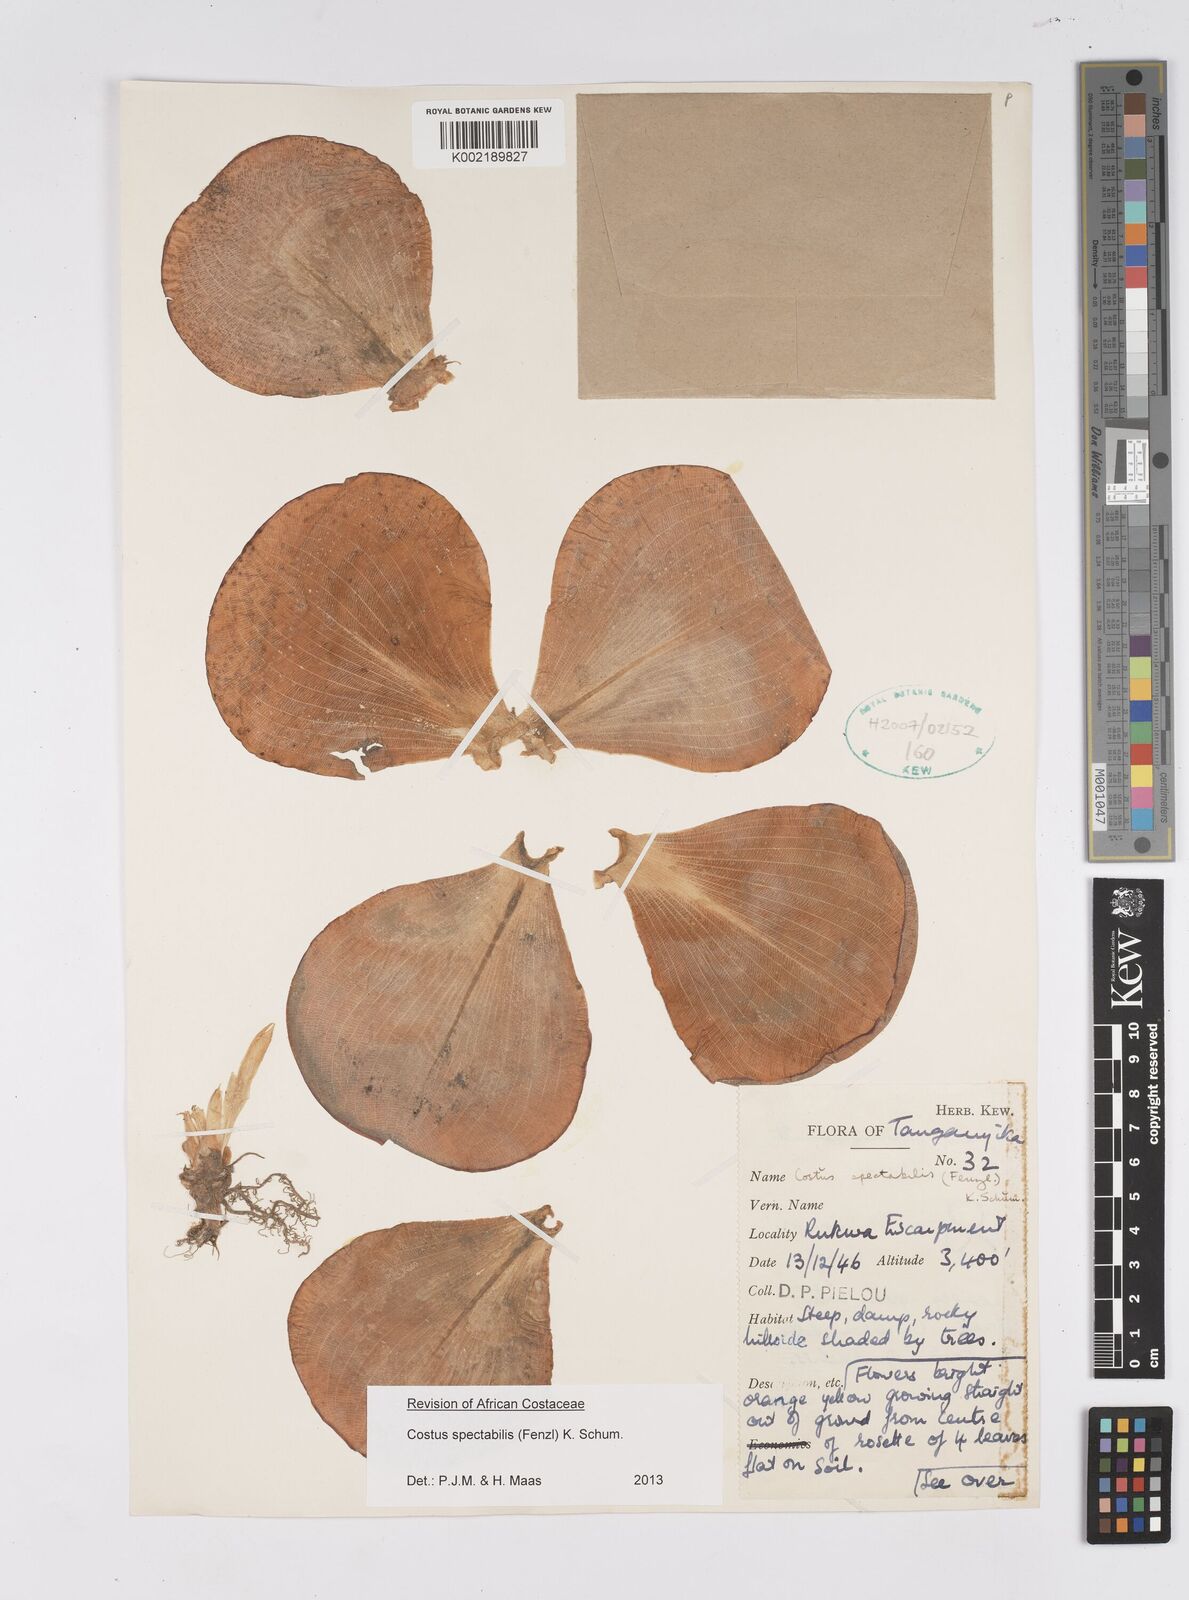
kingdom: Plantae
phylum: Tracheophyta
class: Liliopsida
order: Zingiberales
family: Costaceae
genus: Costus
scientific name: Costus spectabilis
